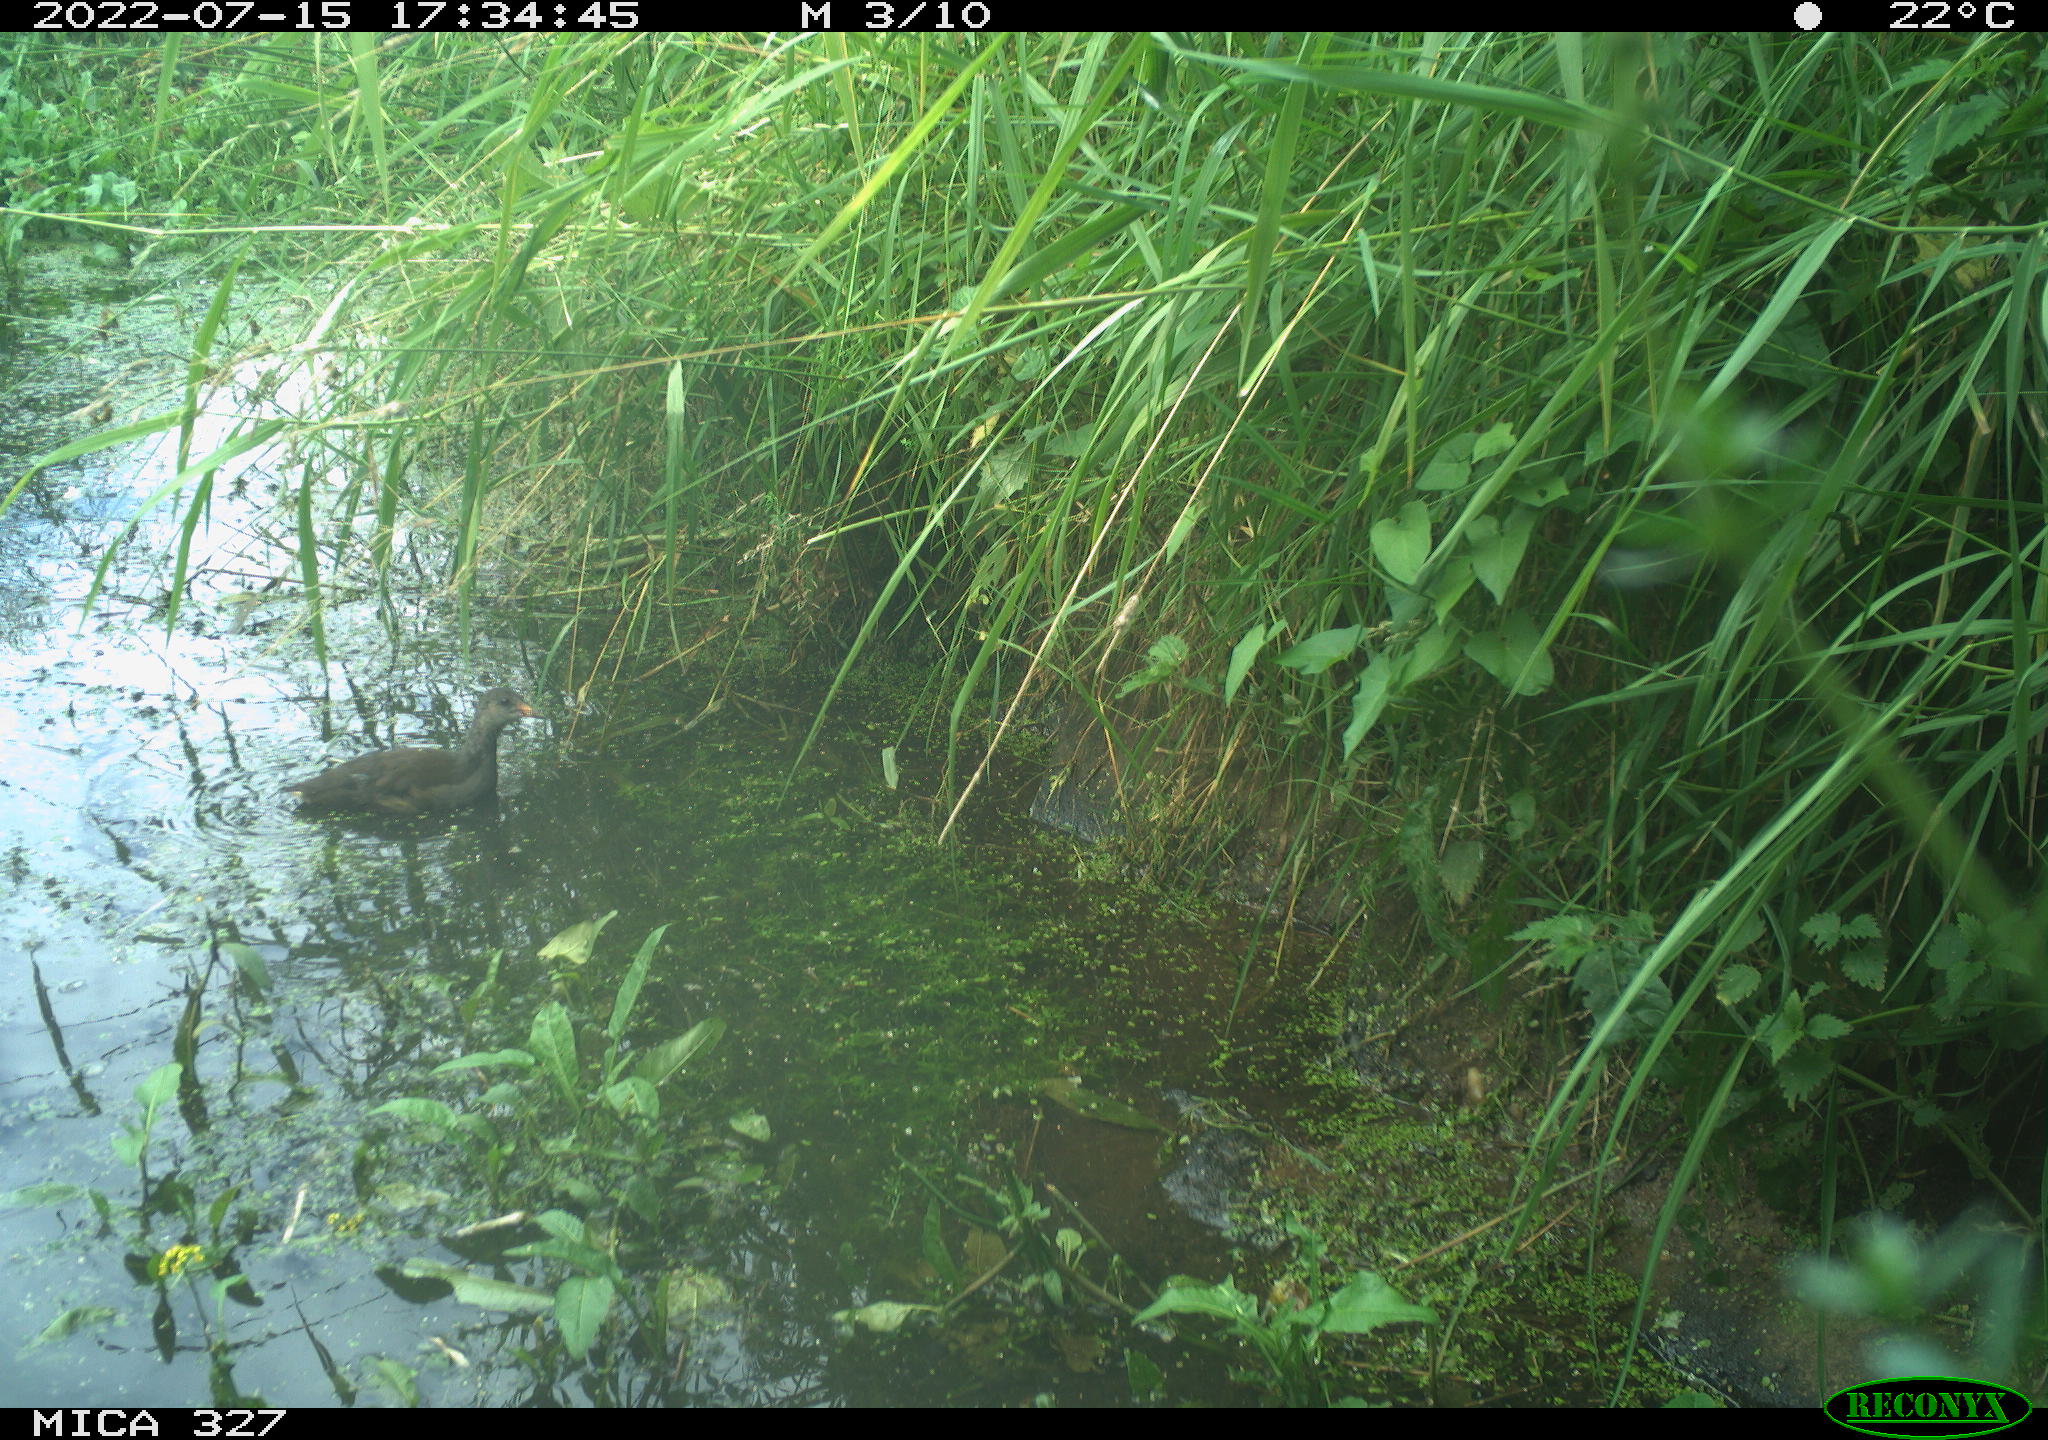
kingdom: Animalia
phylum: Chordata
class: Aves
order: Anseriformes
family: Anatidae
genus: Anas
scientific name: Anas
